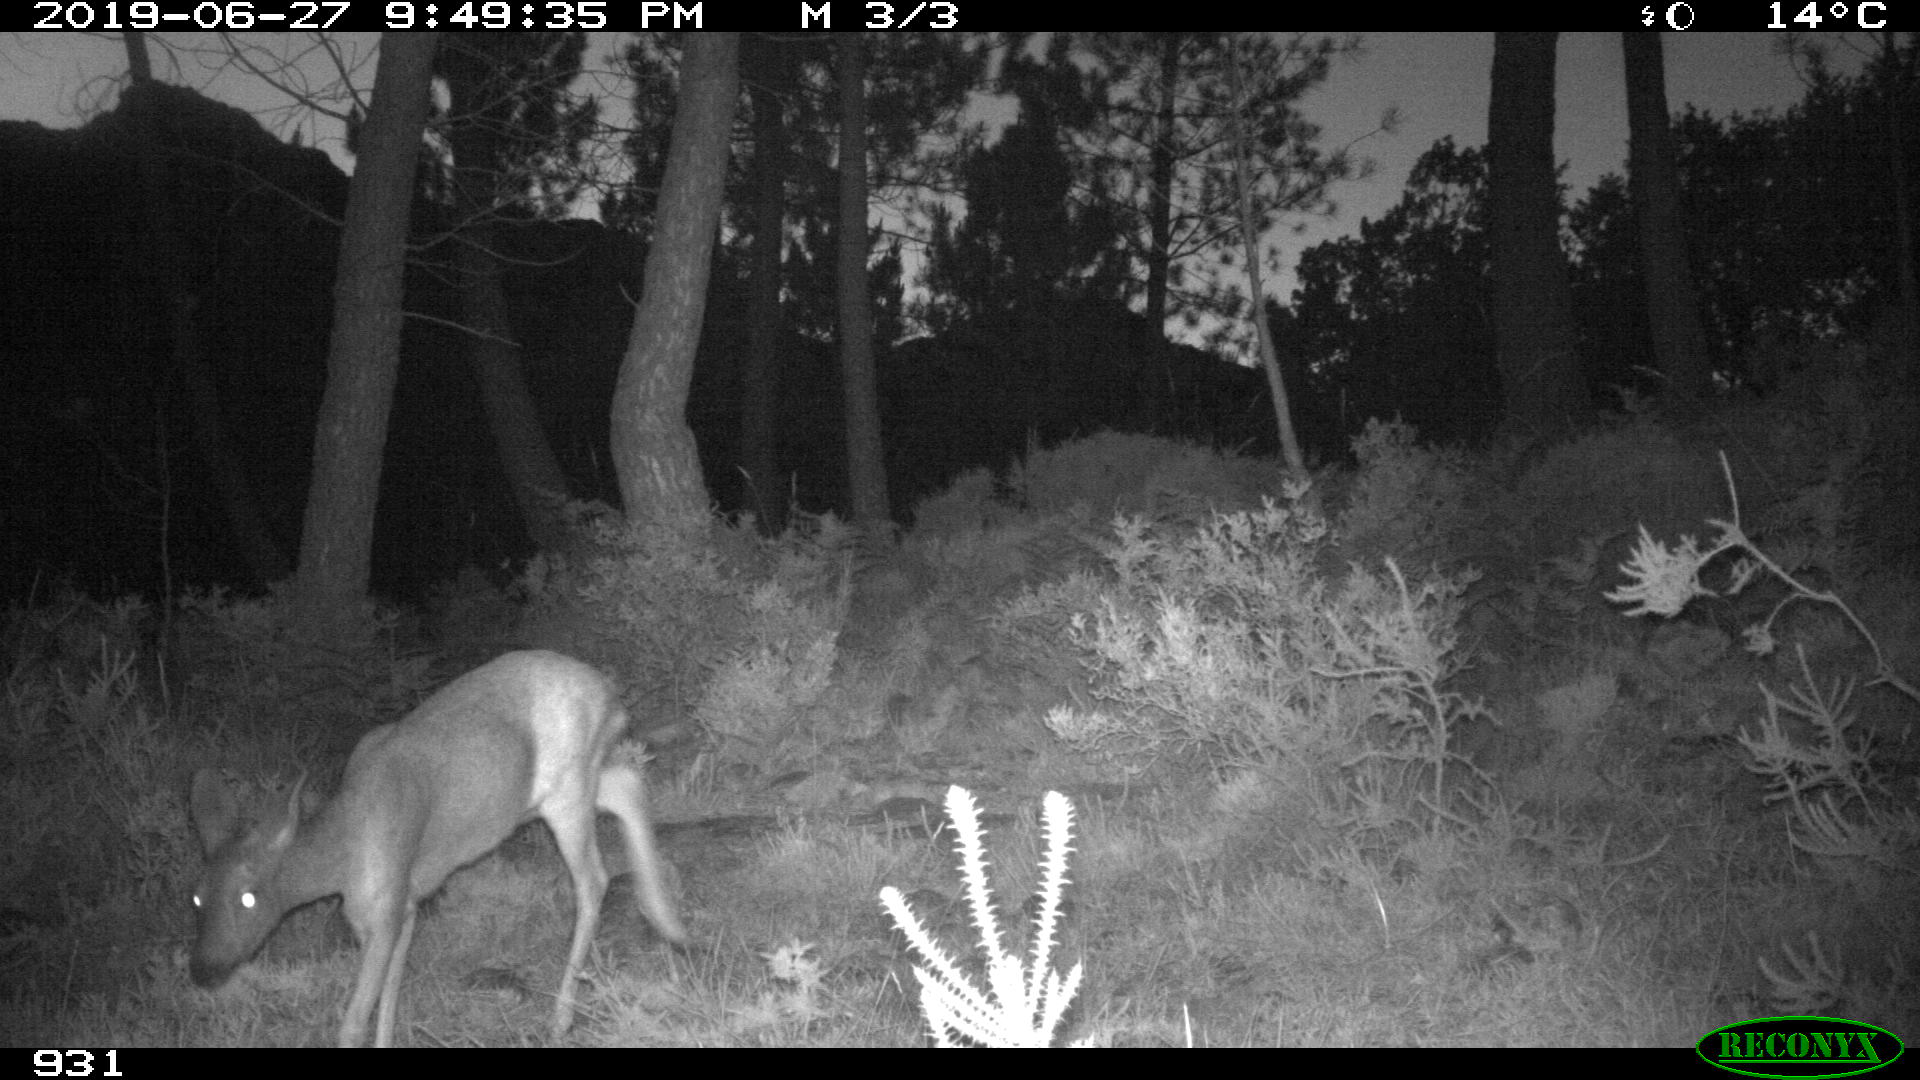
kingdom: Animalia
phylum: Chordata
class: Mammalia
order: Artiodactyla
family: Cervidae
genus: Capreolus
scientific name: Capreolus capreolus
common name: Western roe deer
